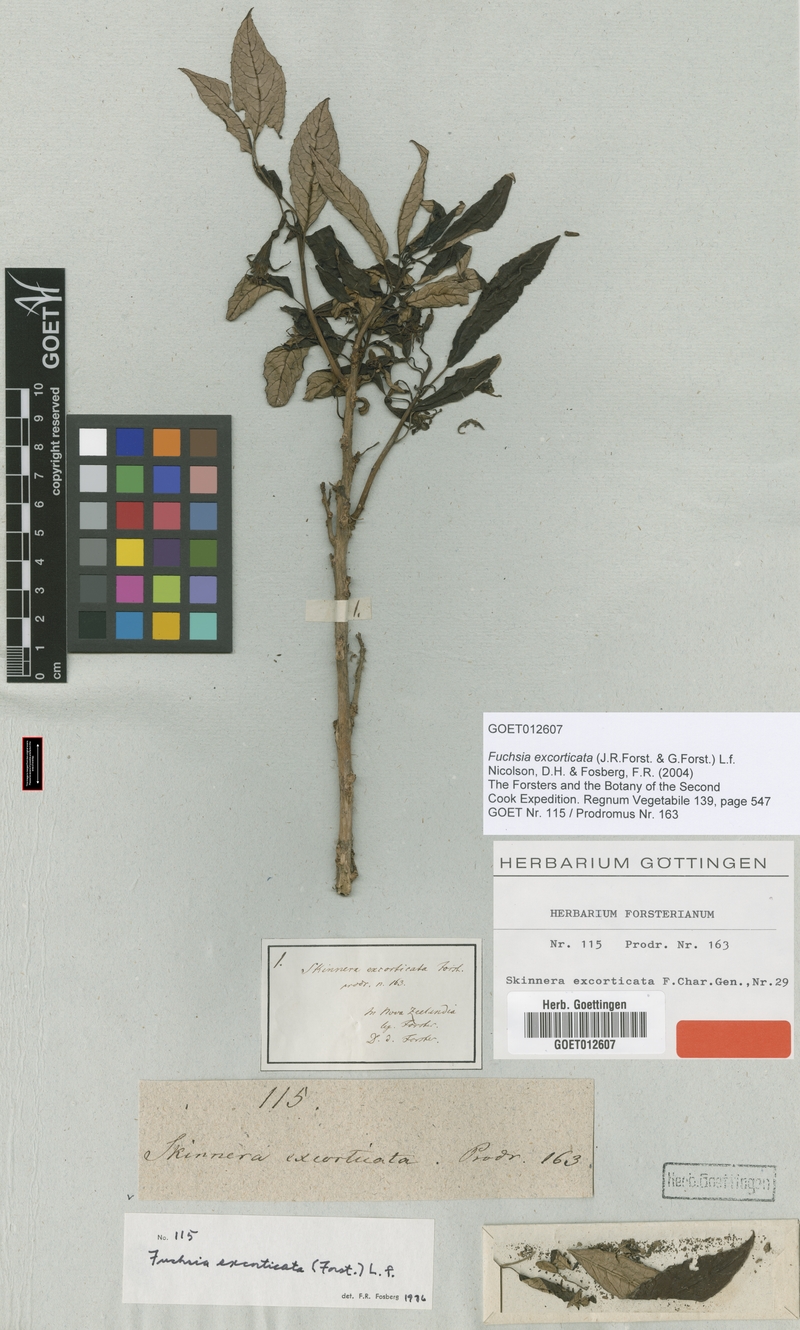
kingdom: Plantae
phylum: Tracheophyta
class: Magnoliopsida
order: Myrtales
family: Onagraceae
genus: Fuchsia
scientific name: Fuchsia excorticata
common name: Tree fuchsia
